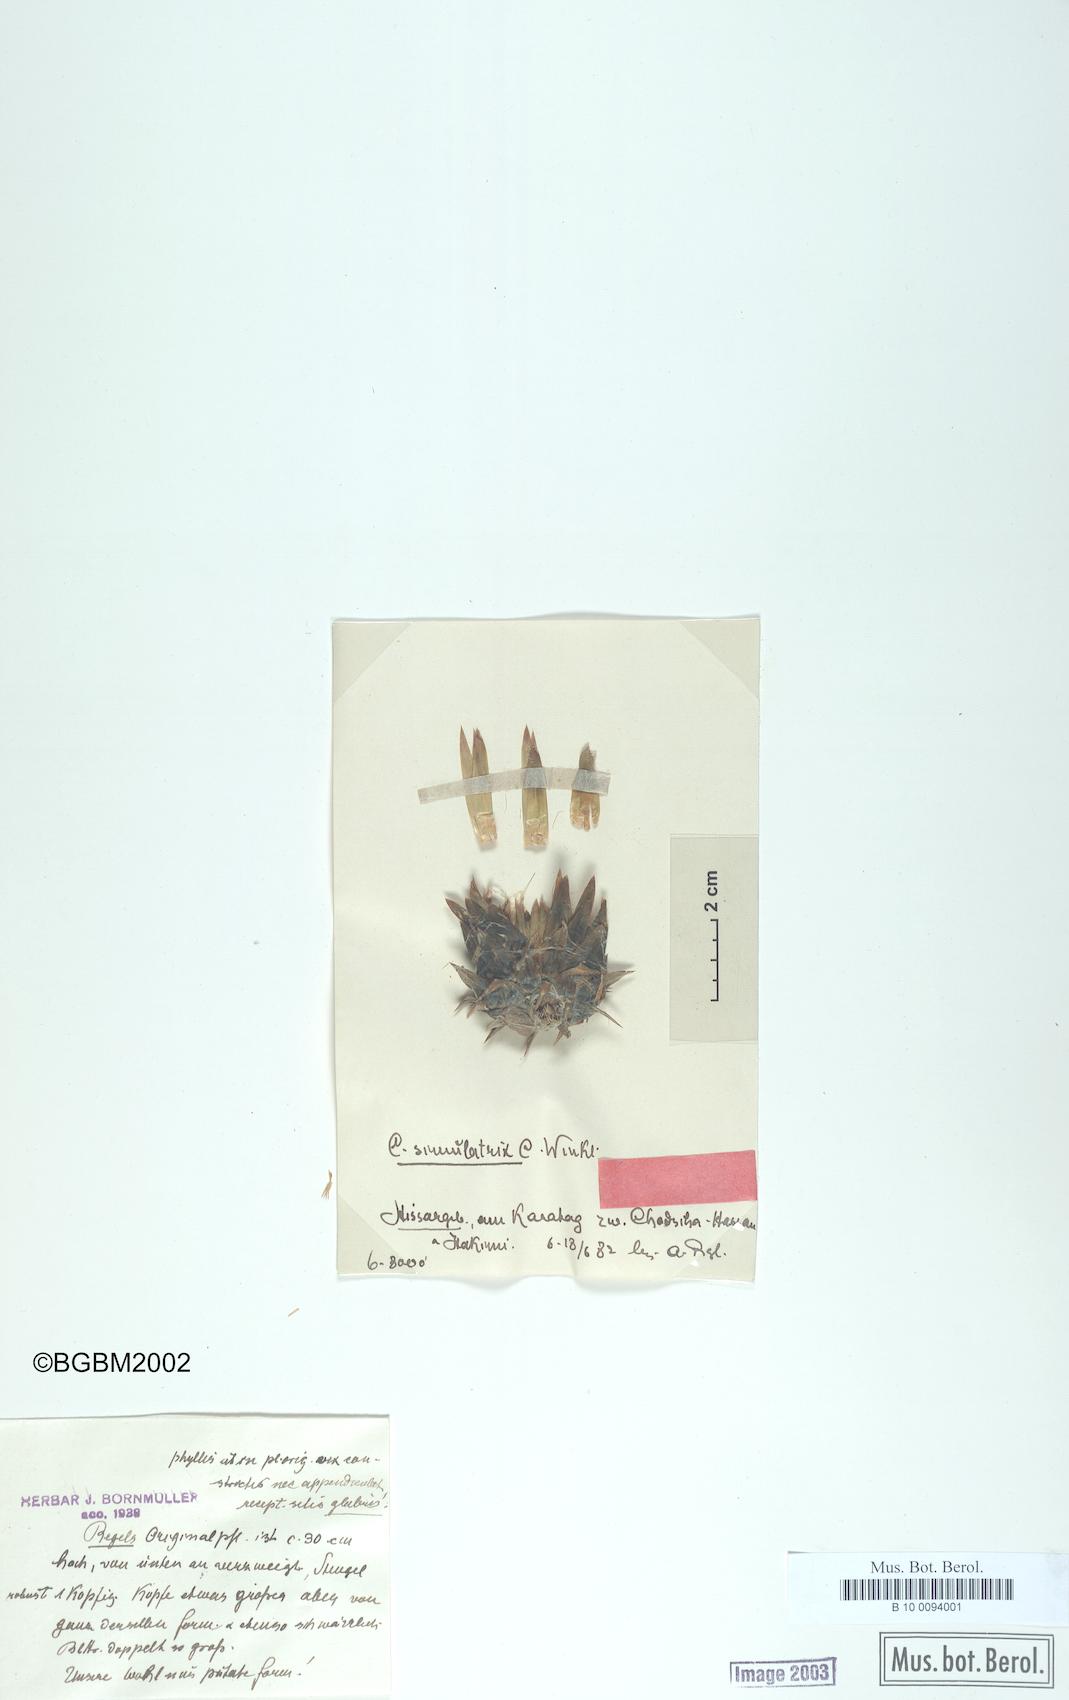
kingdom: Plantae
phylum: Tracheophyta
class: Magnoliopsida
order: Asterales
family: Asteraceae
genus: Cousinia
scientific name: Cousinia simulatrix
